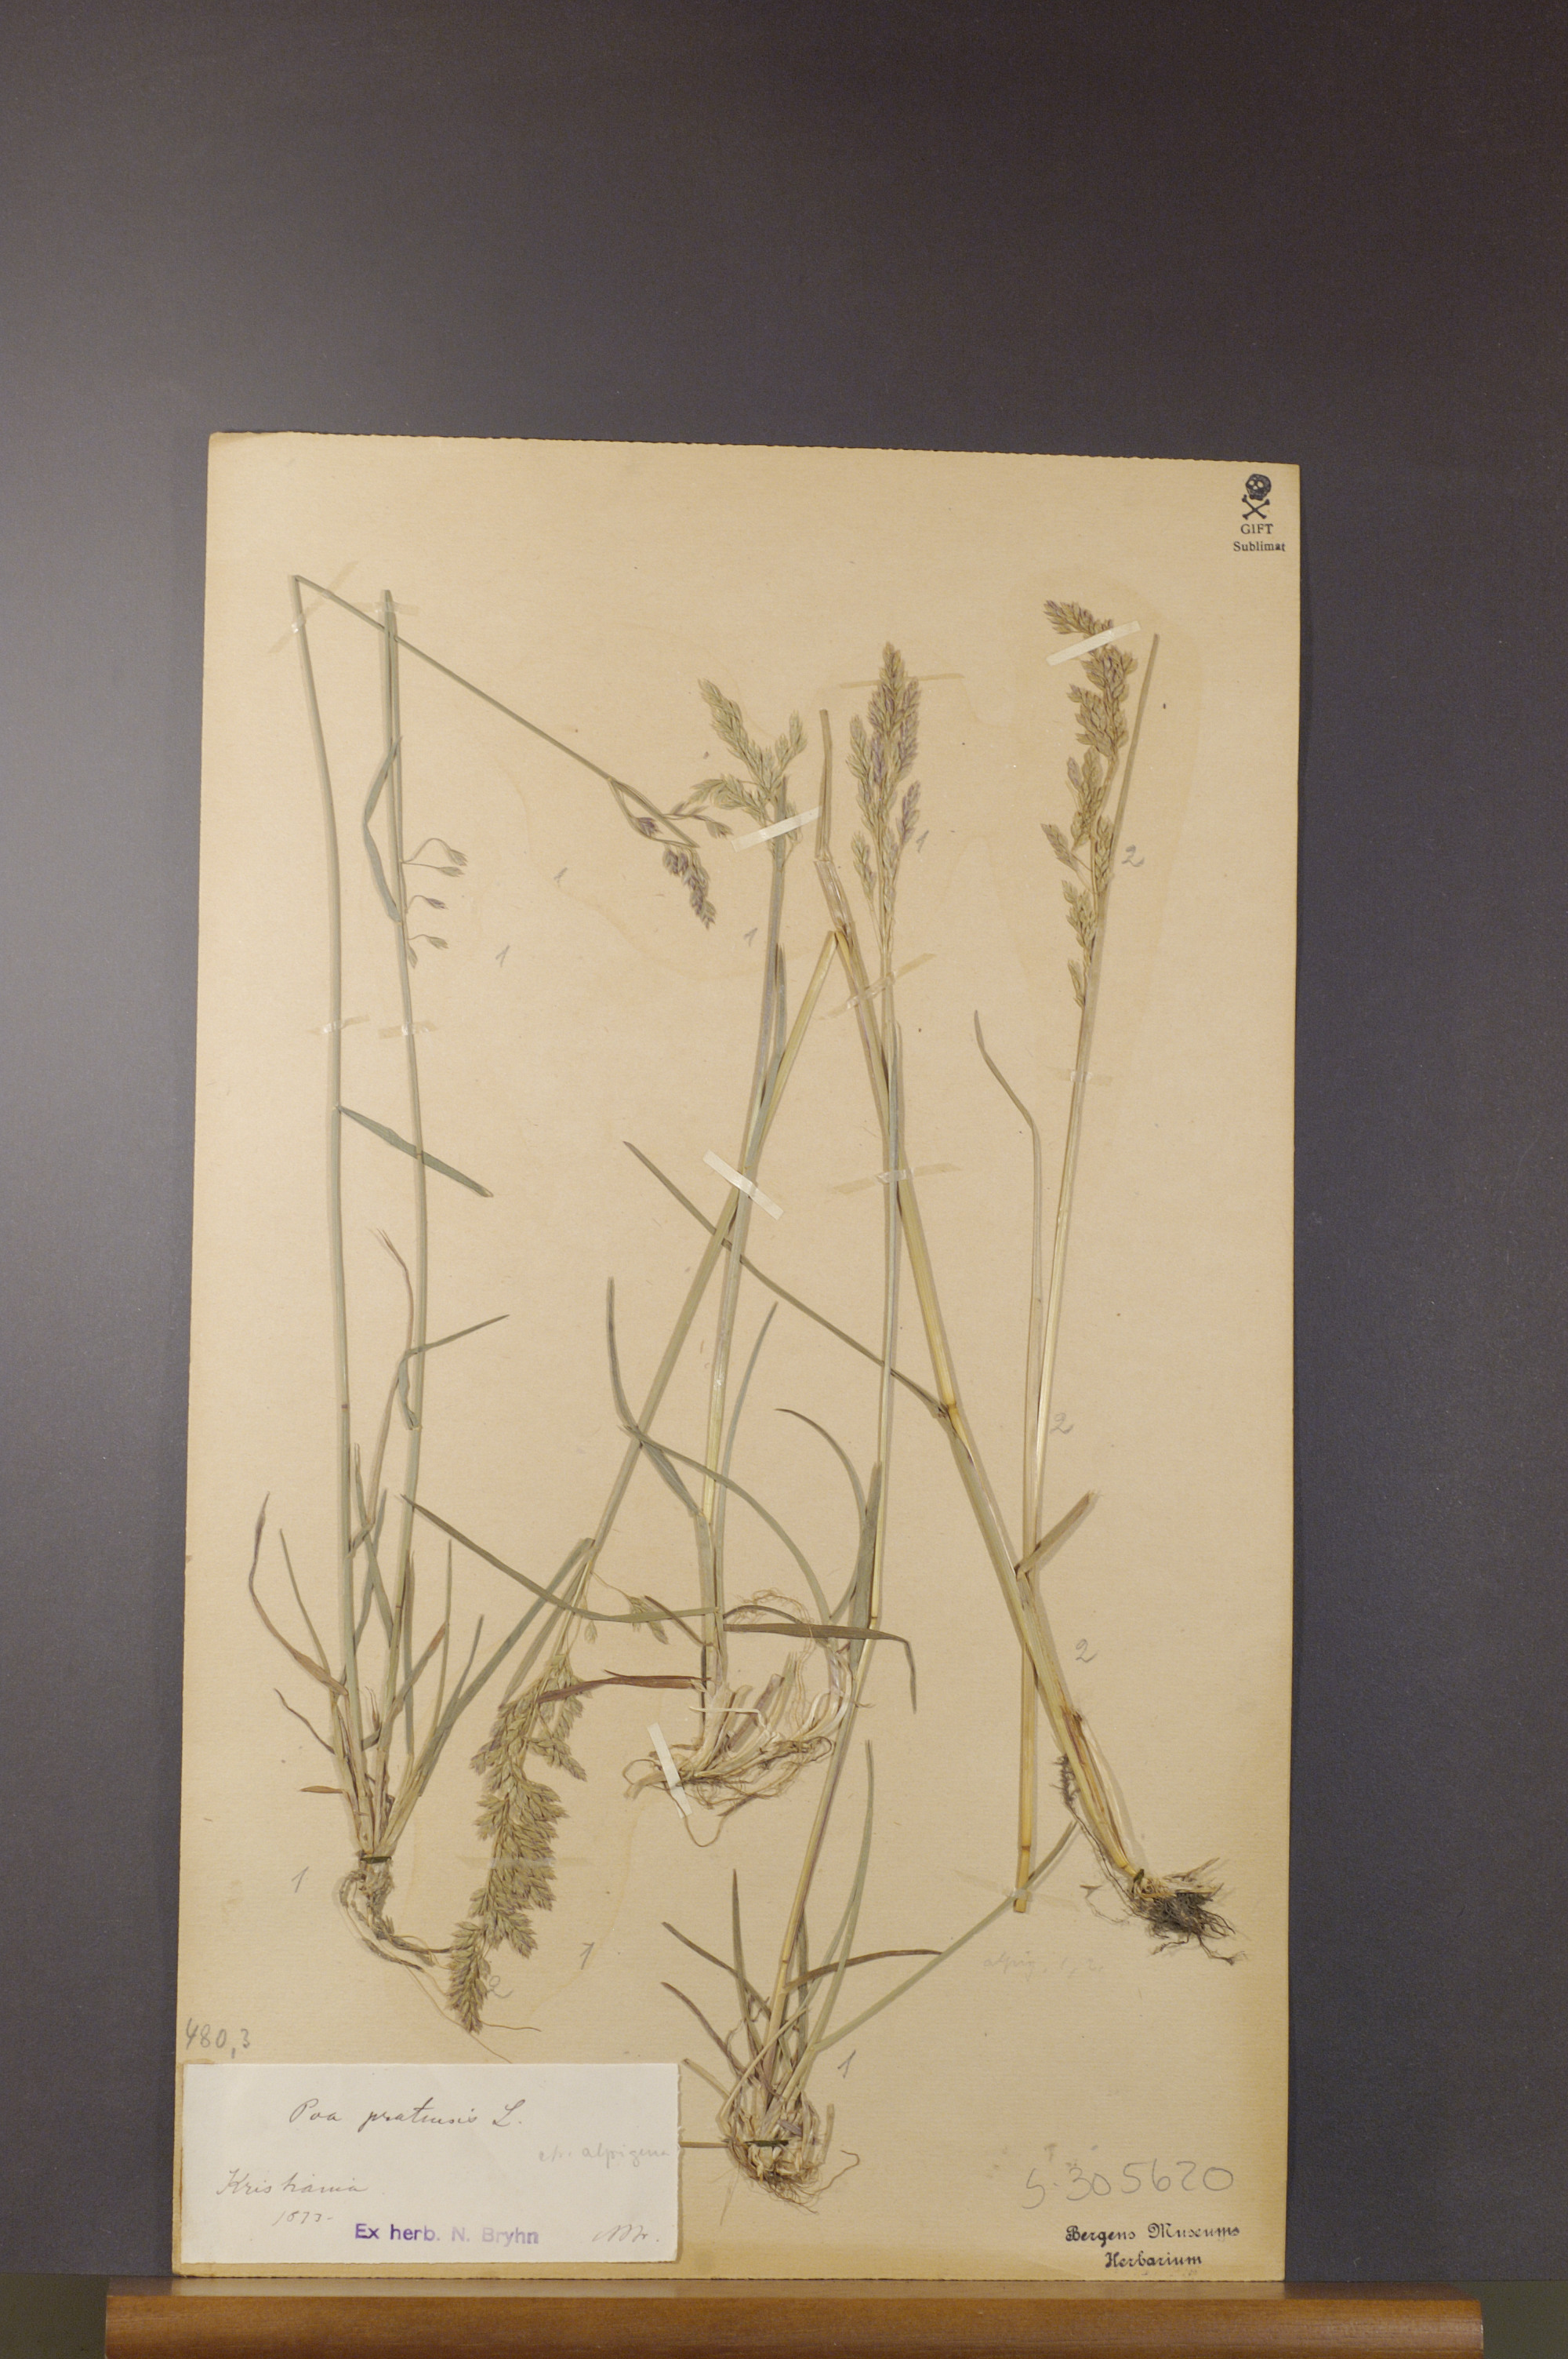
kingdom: Plantae
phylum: Tracheophyta
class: Liliopsida
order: Poales
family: Poaceae
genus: Poa
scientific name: Poa pratensis
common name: Kentucky bluegrass
